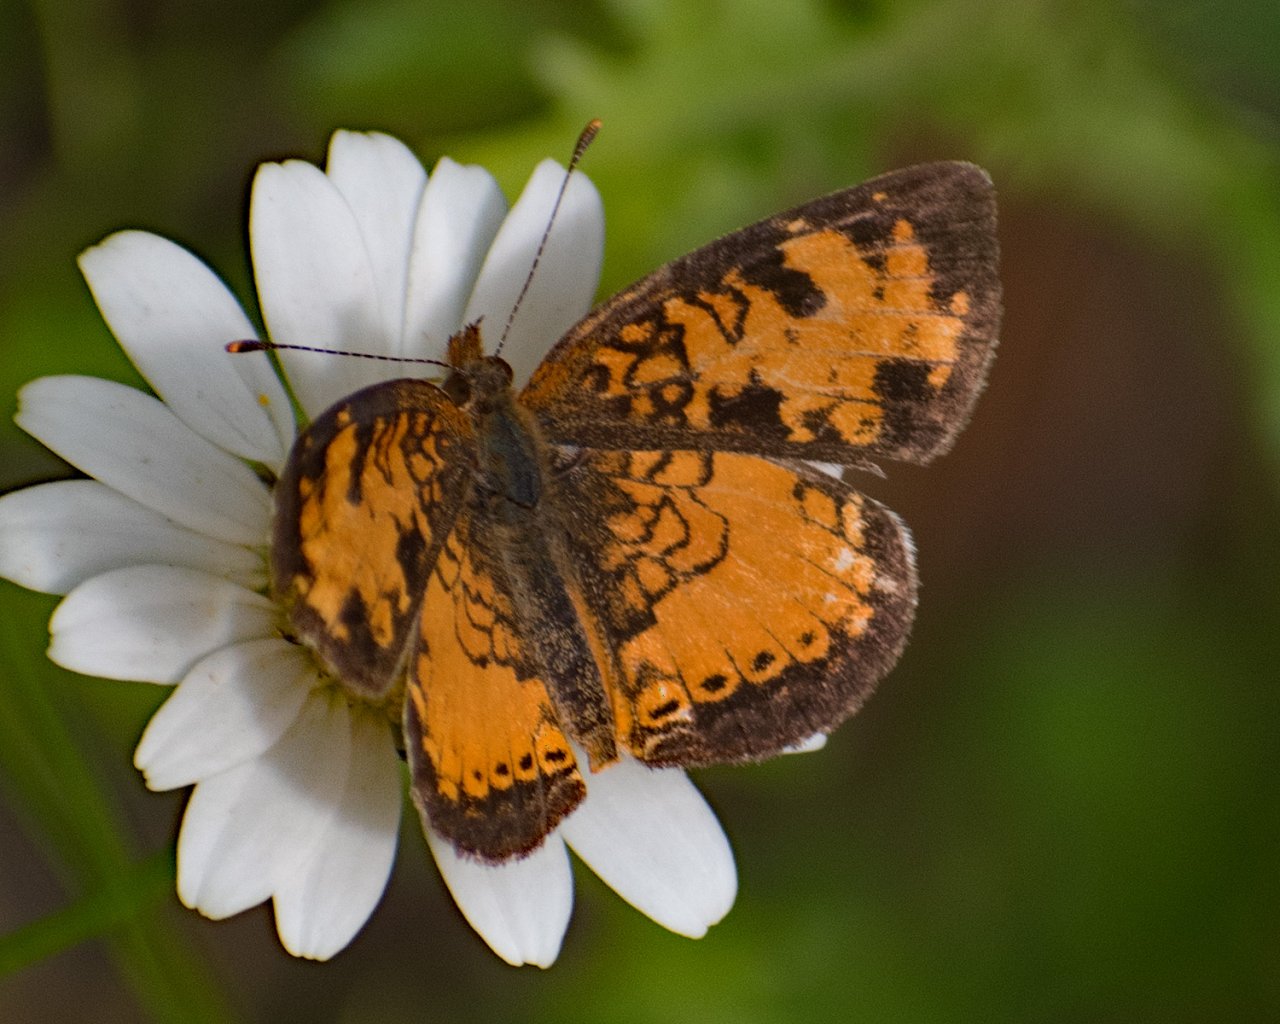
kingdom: Animalia
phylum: Arthropoda
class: Insecta
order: Lepidoptera
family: Nymphalidae
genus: Phyciodes
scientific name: Phyciodes tharos
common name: Northern Crescent
